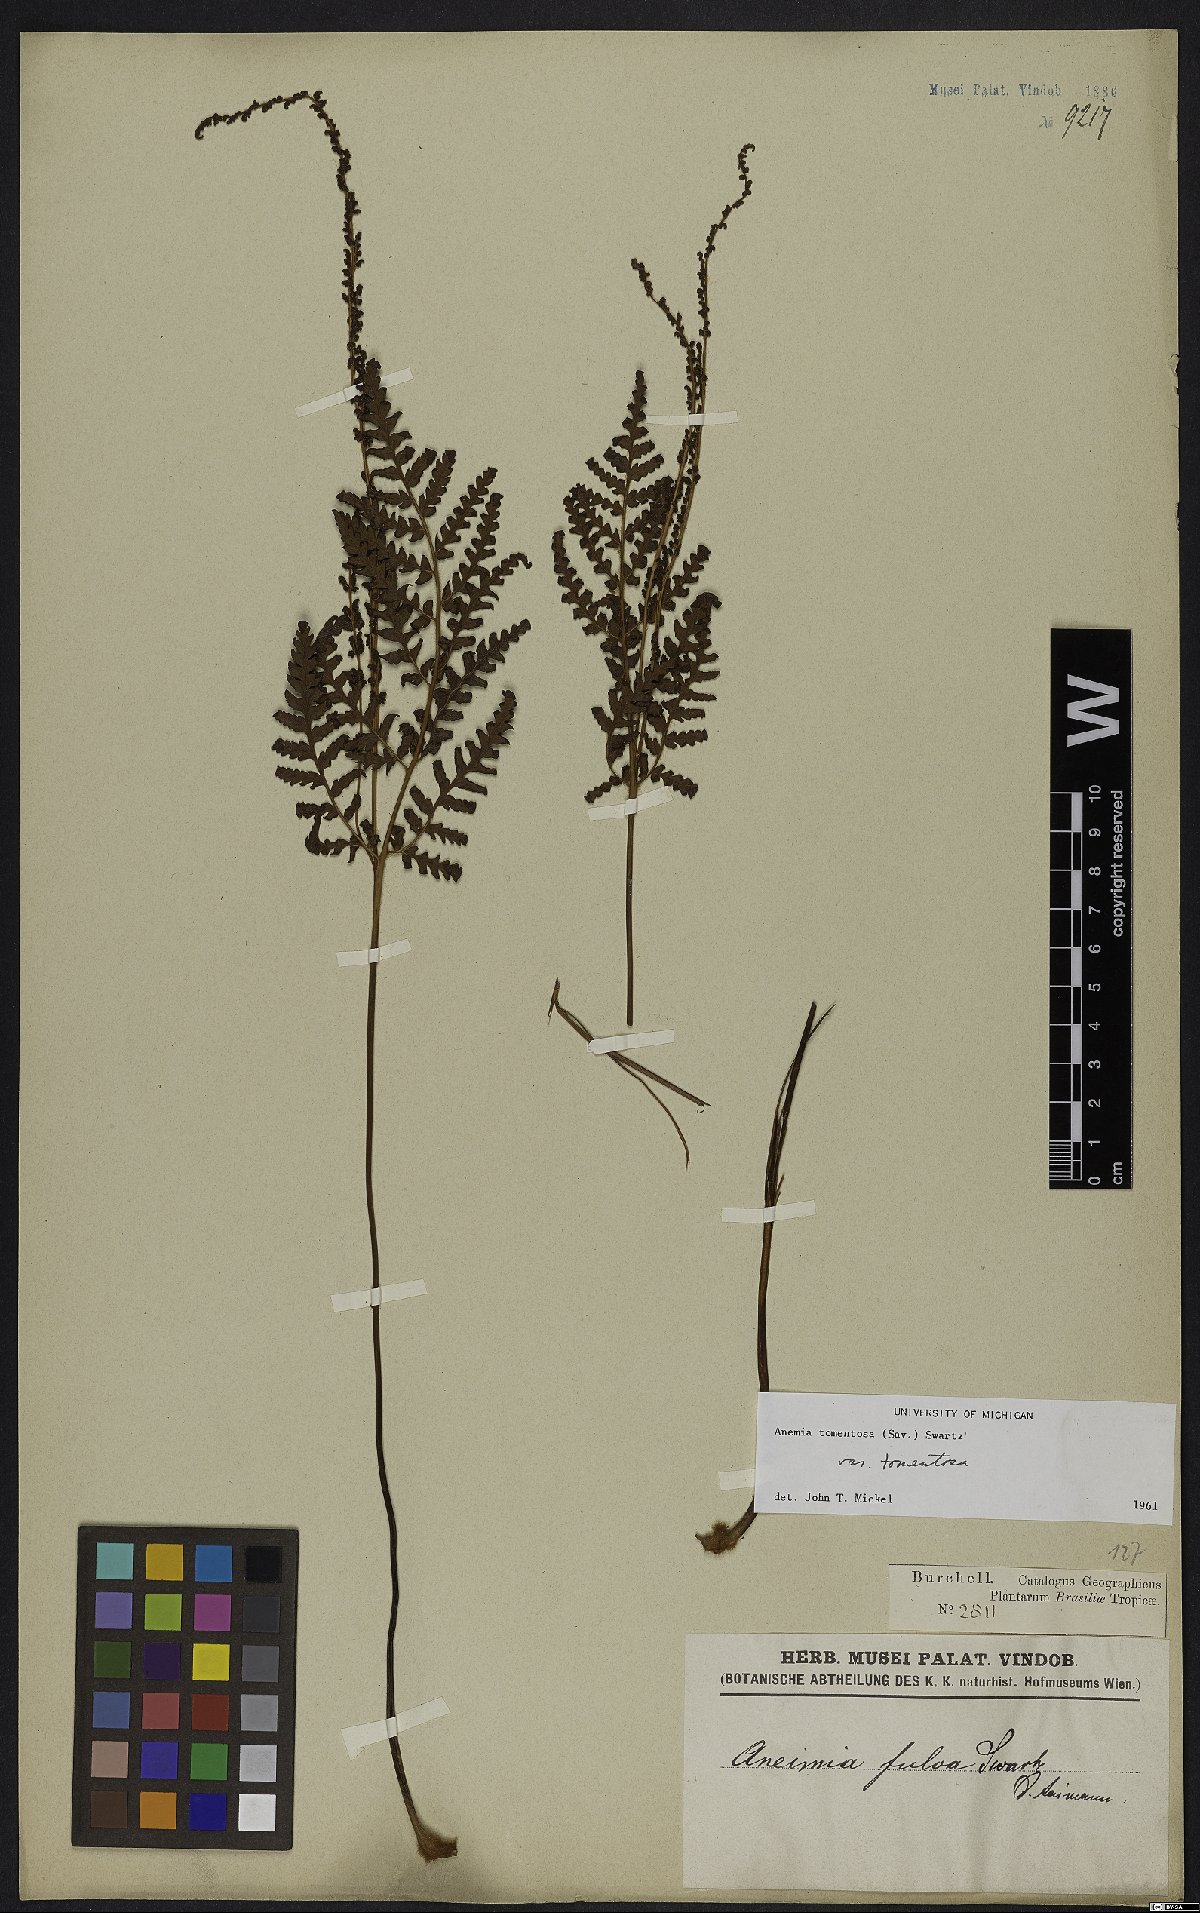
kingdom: Plantae
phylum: Tracheophyta
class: Polypodiopsida
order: Schizaeales
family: Anemiaceae
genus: Anemia
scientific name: Anemia tomentosa
